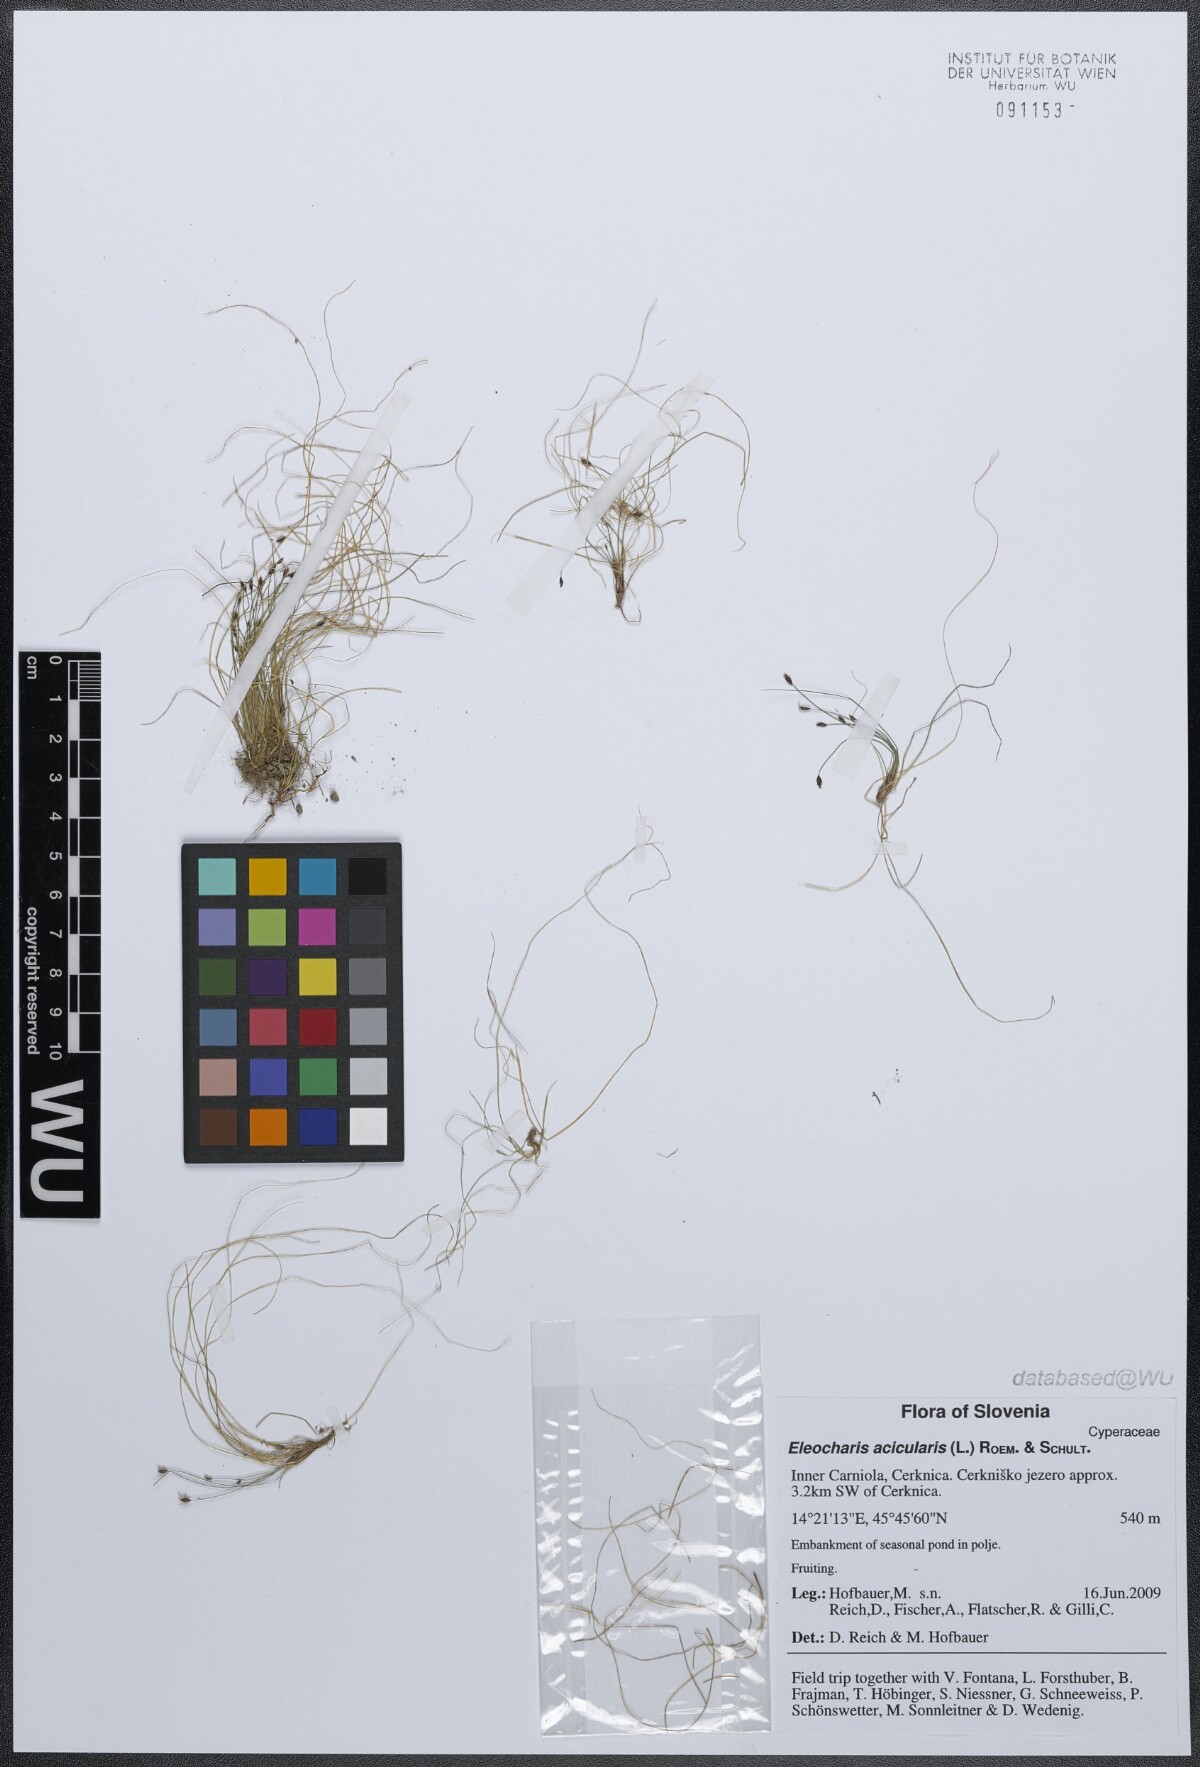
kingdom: Plantae
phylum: Tracheophyta
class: Liliopsida
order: Poales
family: Cyperaceae
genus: Eleocharis
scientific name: Eleocharis acicularis
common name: Needle spike-rush
